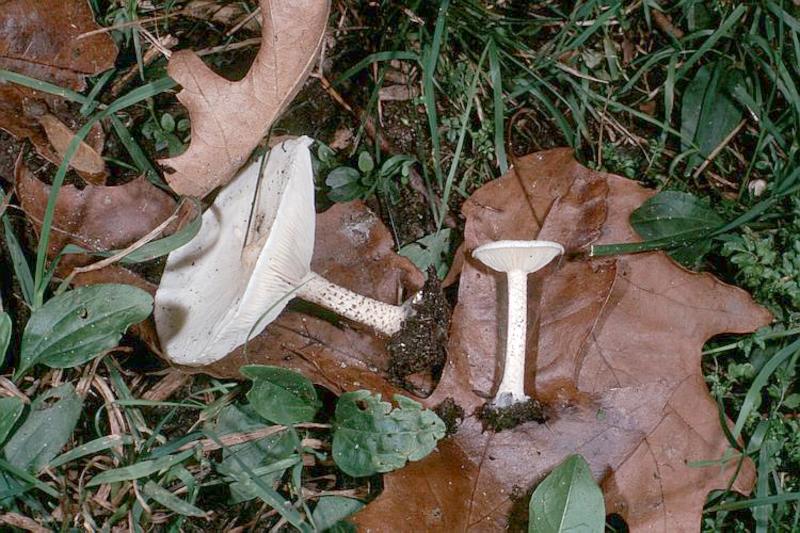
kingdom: Fungi
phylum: Basidiomycota
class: Agaricomycetes
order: Agaricales
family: Tricholomataceae
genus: Melanoleuca
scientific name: Melanoleuca verrucipes
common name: Warty cavalier
